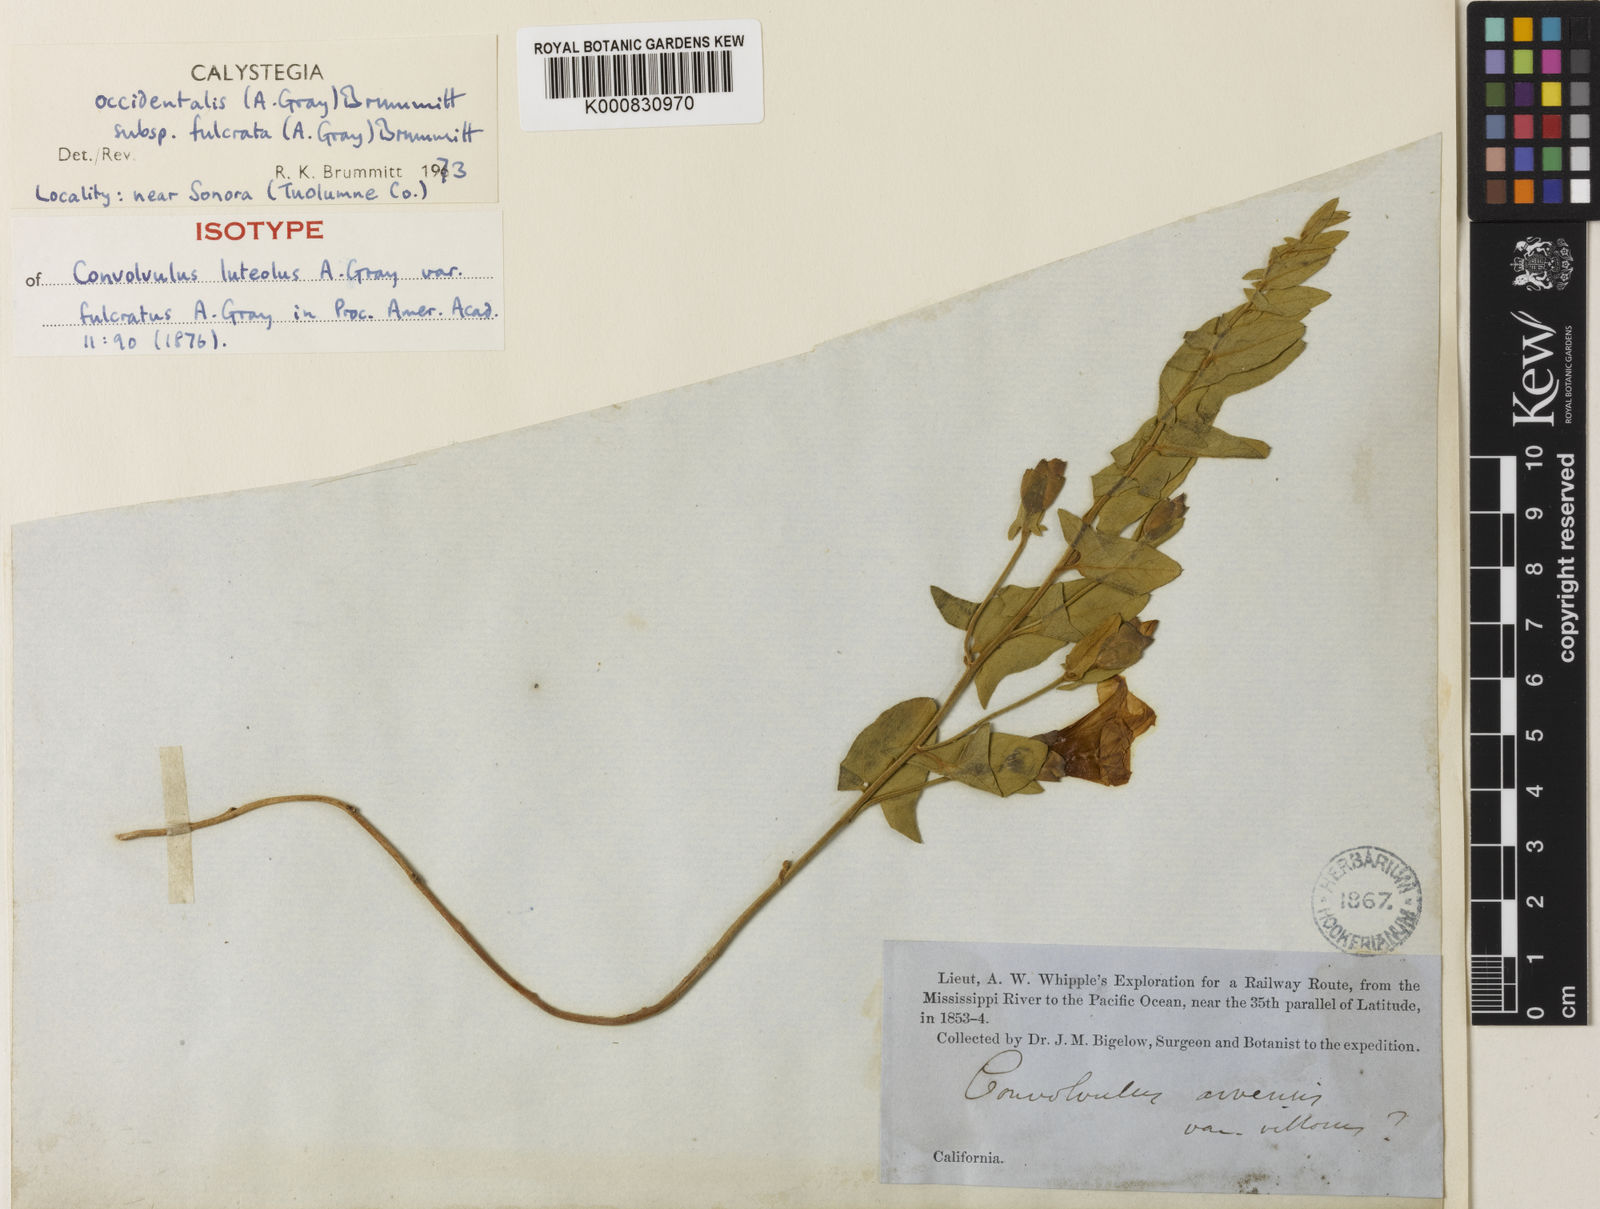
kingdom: Plantae
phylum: Tracheophyta
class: Magnoliopsida
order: Solanales
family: Convolvulaceae
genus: Calystegia
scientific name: Calystegia collina
